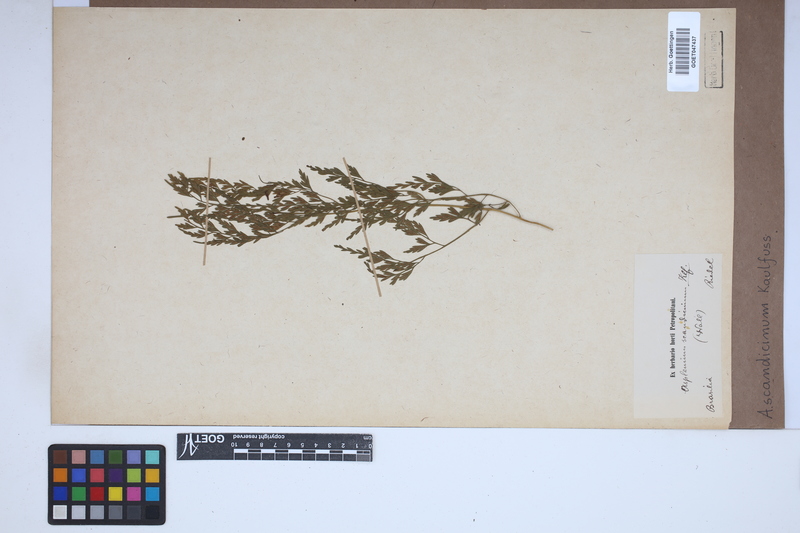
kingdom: Plantae
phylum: Tracheophyta
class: Polypodiopsida
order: Polypodiales
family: Aspleniaceae
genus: Asplenium
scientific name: Asplenium scandicinum
